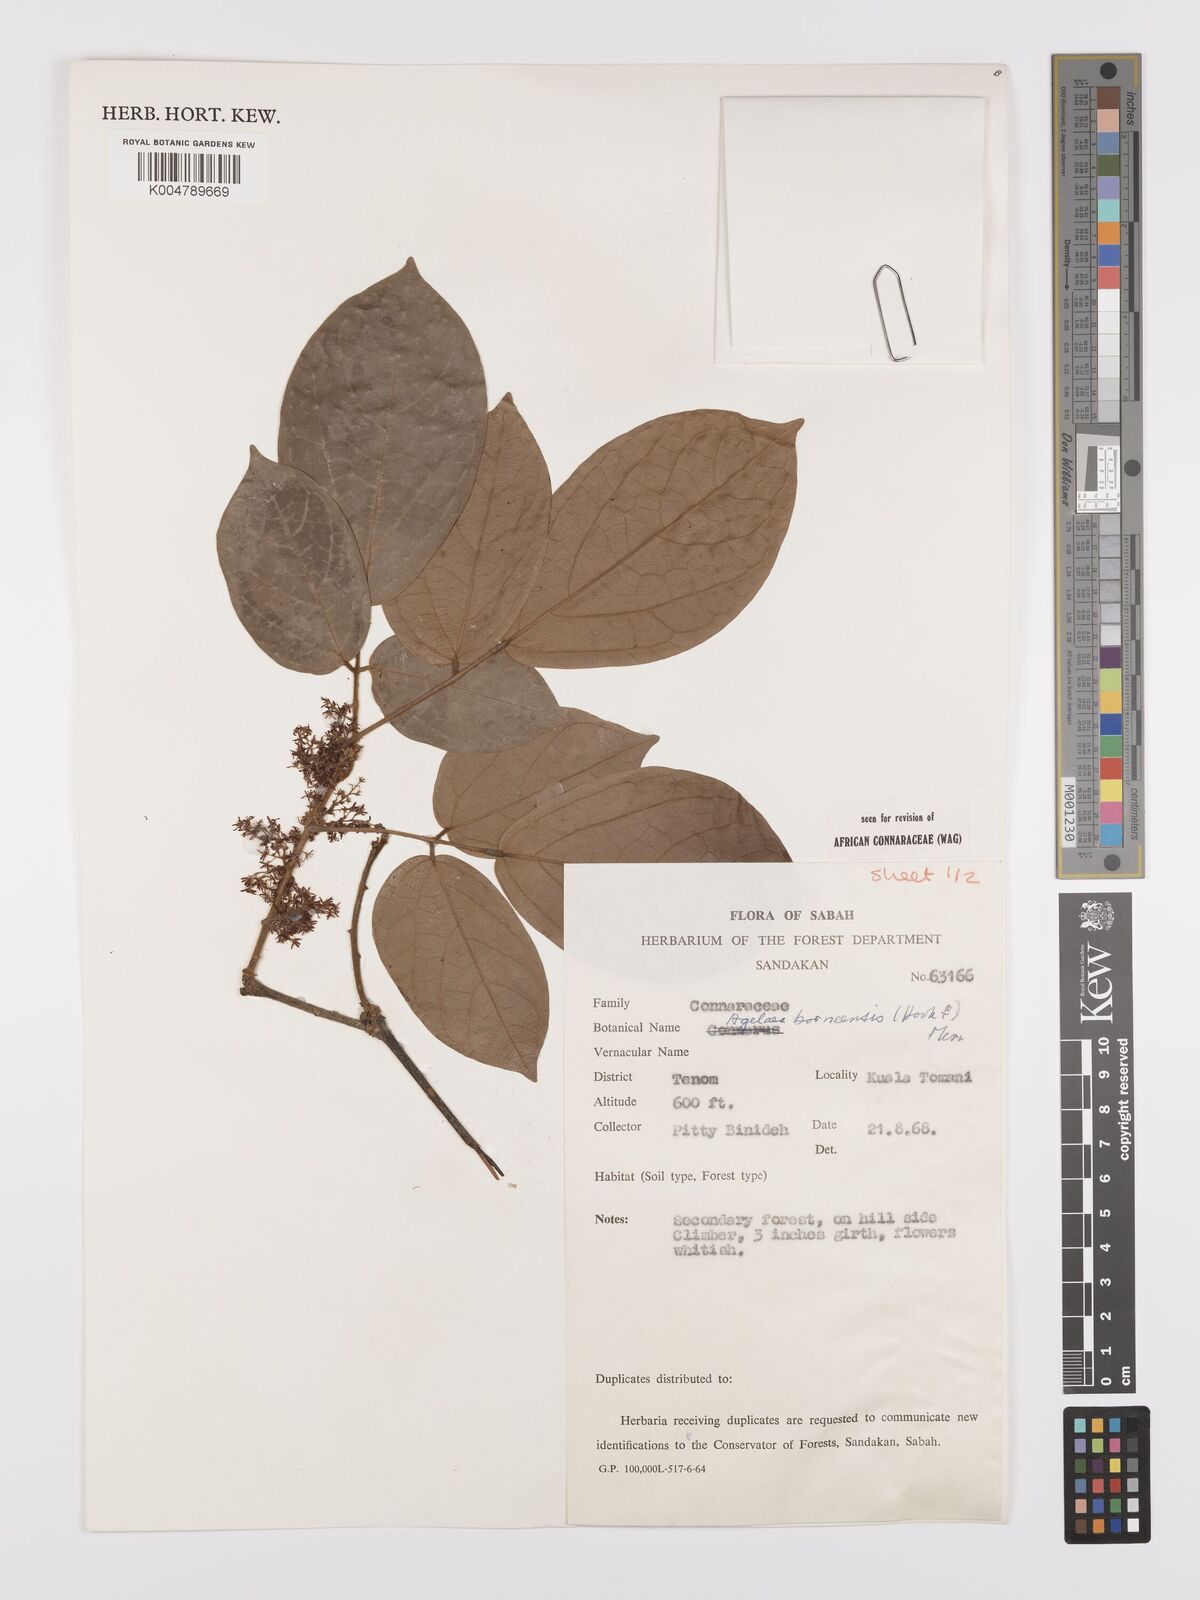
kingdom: Plantae
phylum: Tracheophyta
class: Magnoliopsida
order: Oxalidales
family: Connaraceae
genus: Agelaea
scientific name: Agelaea borneensis
